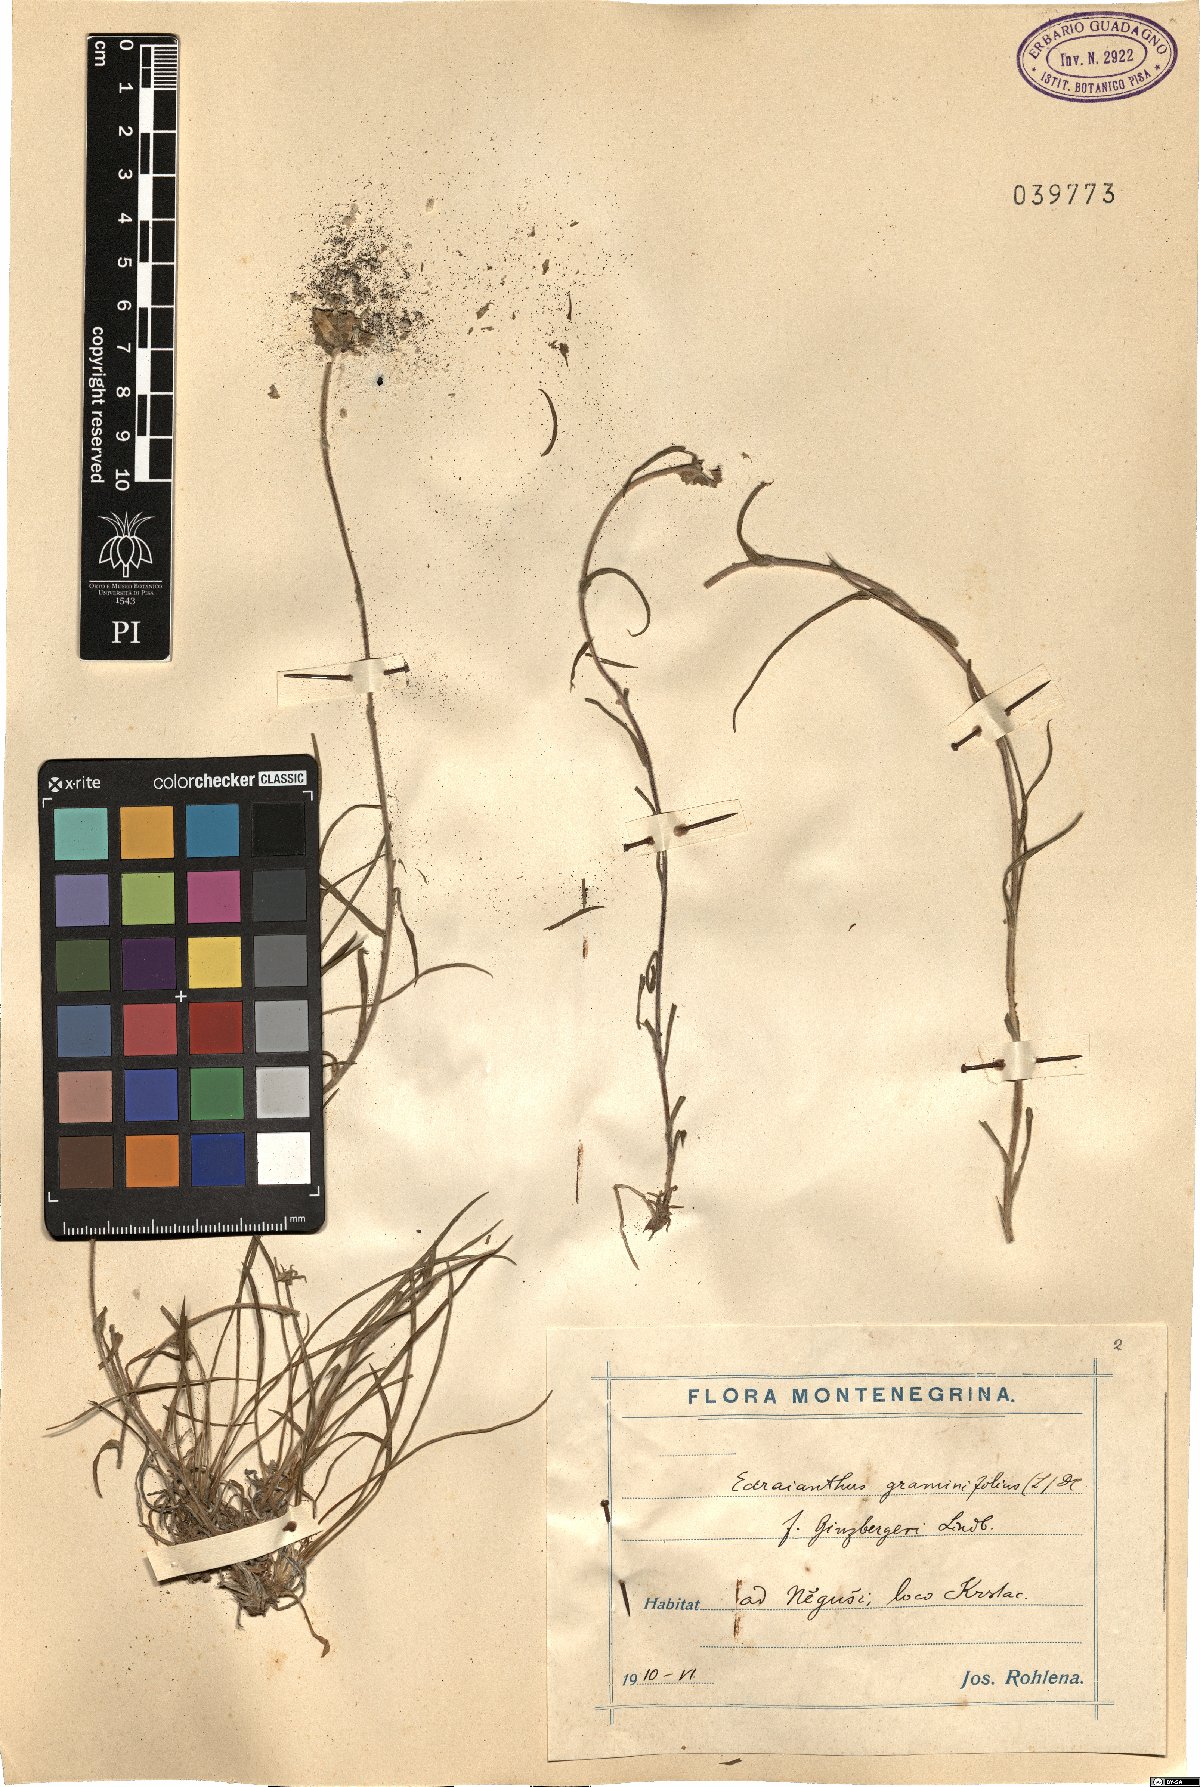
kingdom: Plantae
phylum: Tracheophyta
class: Magnoliopsida
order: Asterales
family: Campanulaceae
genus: Edraianthus
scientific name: Edraianthus graminifolius
